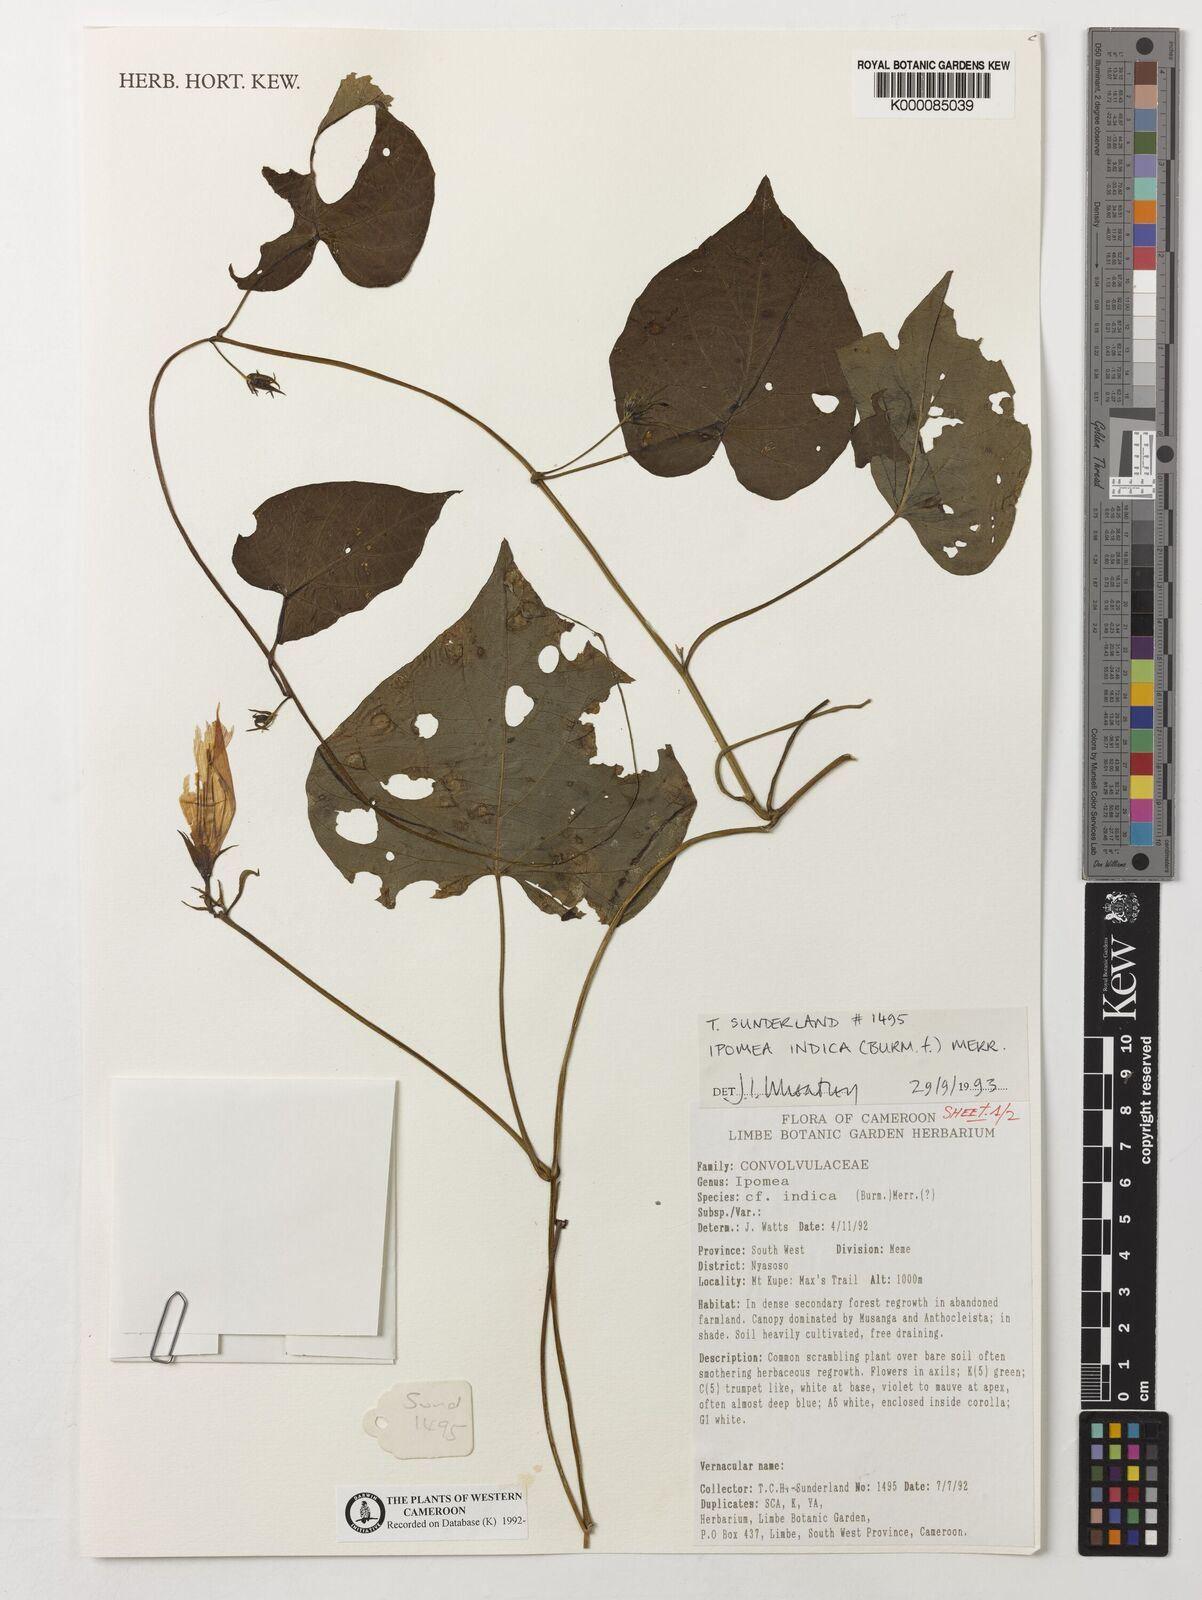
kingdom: Plantae
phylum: Tracheophyta
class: Magnoliopsida
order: Solanales
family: Convolvulaceae
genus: Ipomoea
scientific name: Ipomoea indica
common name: Blue dawnflower
